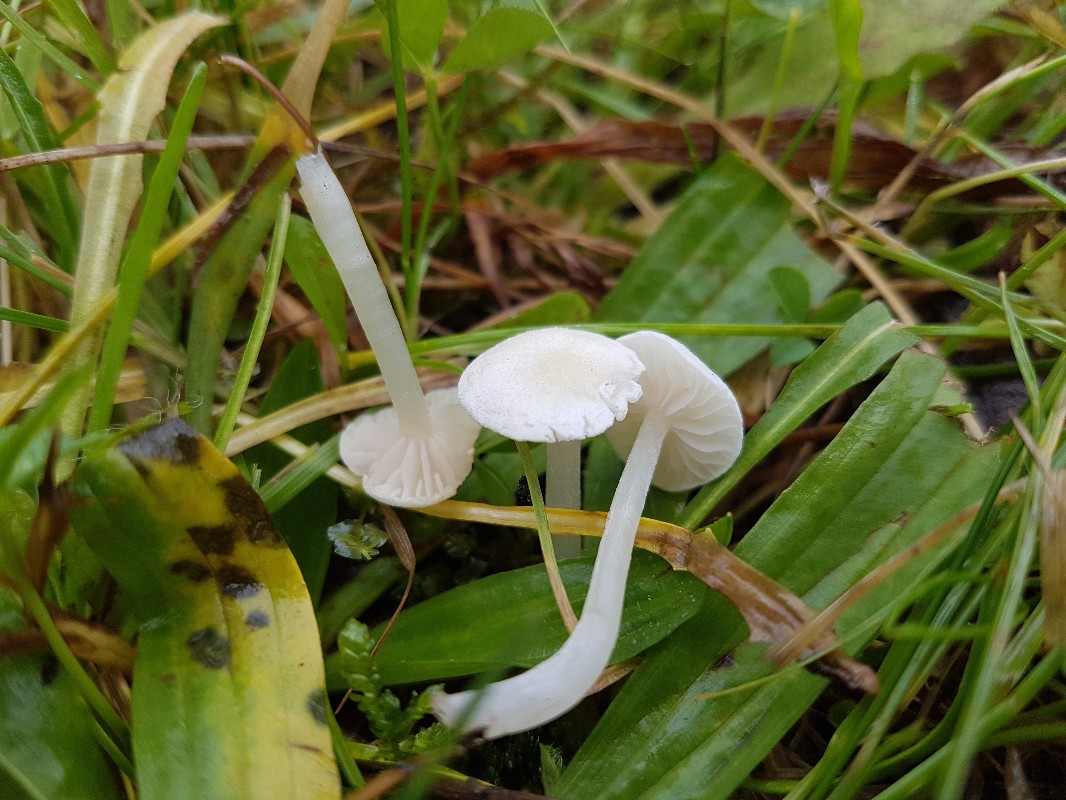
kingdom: Fungi
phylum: Basidiomycota
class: Agaricomycetes
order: Agaricales
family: Entolomataceae
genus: Entoloma
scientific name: Entoloma sericellum
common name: silkehvid rødblad
